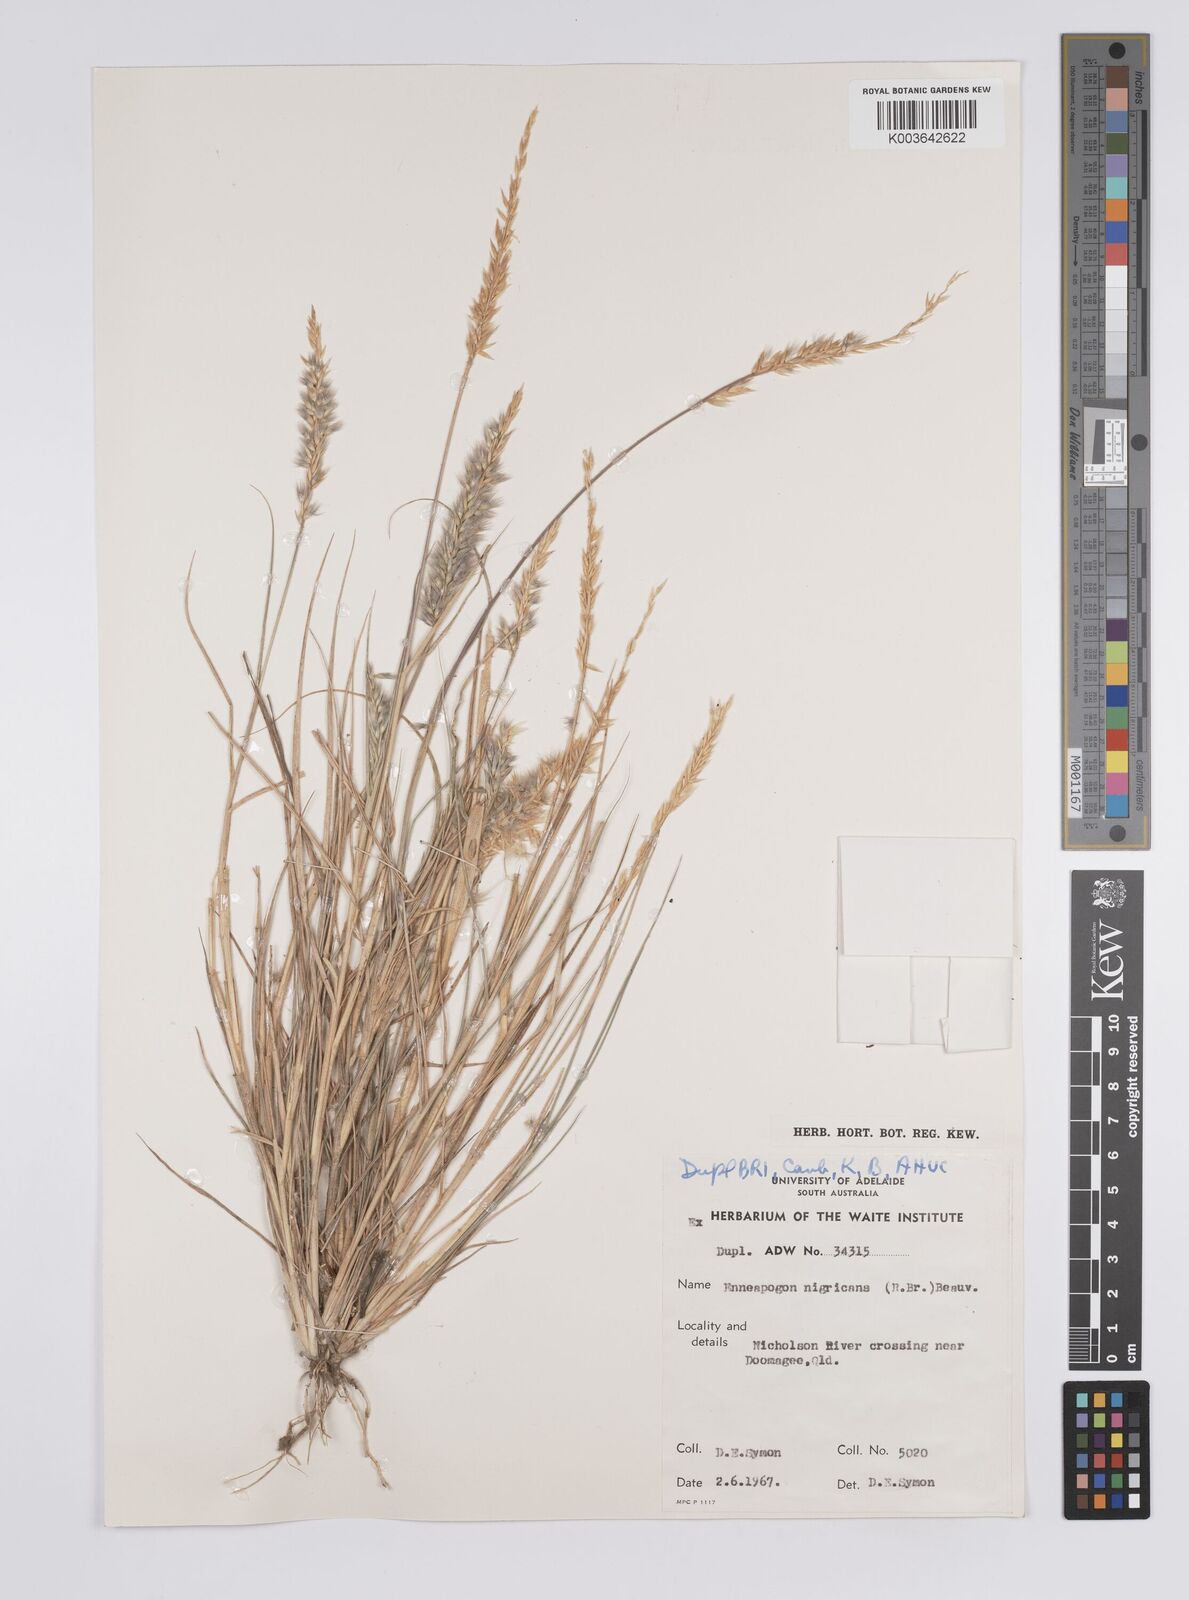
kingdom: Plantae
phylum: Tracheophyta
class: Liliopsida
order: Poales
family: Poaceae
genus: Enneapogon
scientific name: Enneapogon nigricans
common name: Pappus grass
